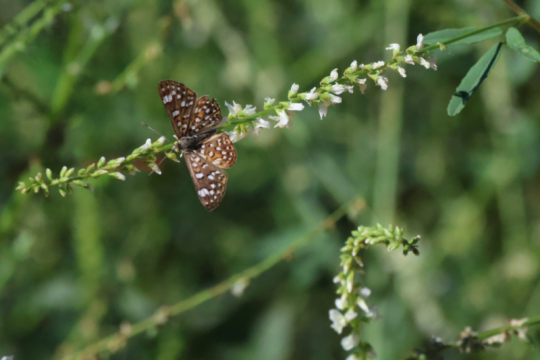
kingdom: Animalia
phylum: Arthropoda
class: Insecta
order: Lepidoptera
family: Riodinidae
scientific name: Riodinidae
